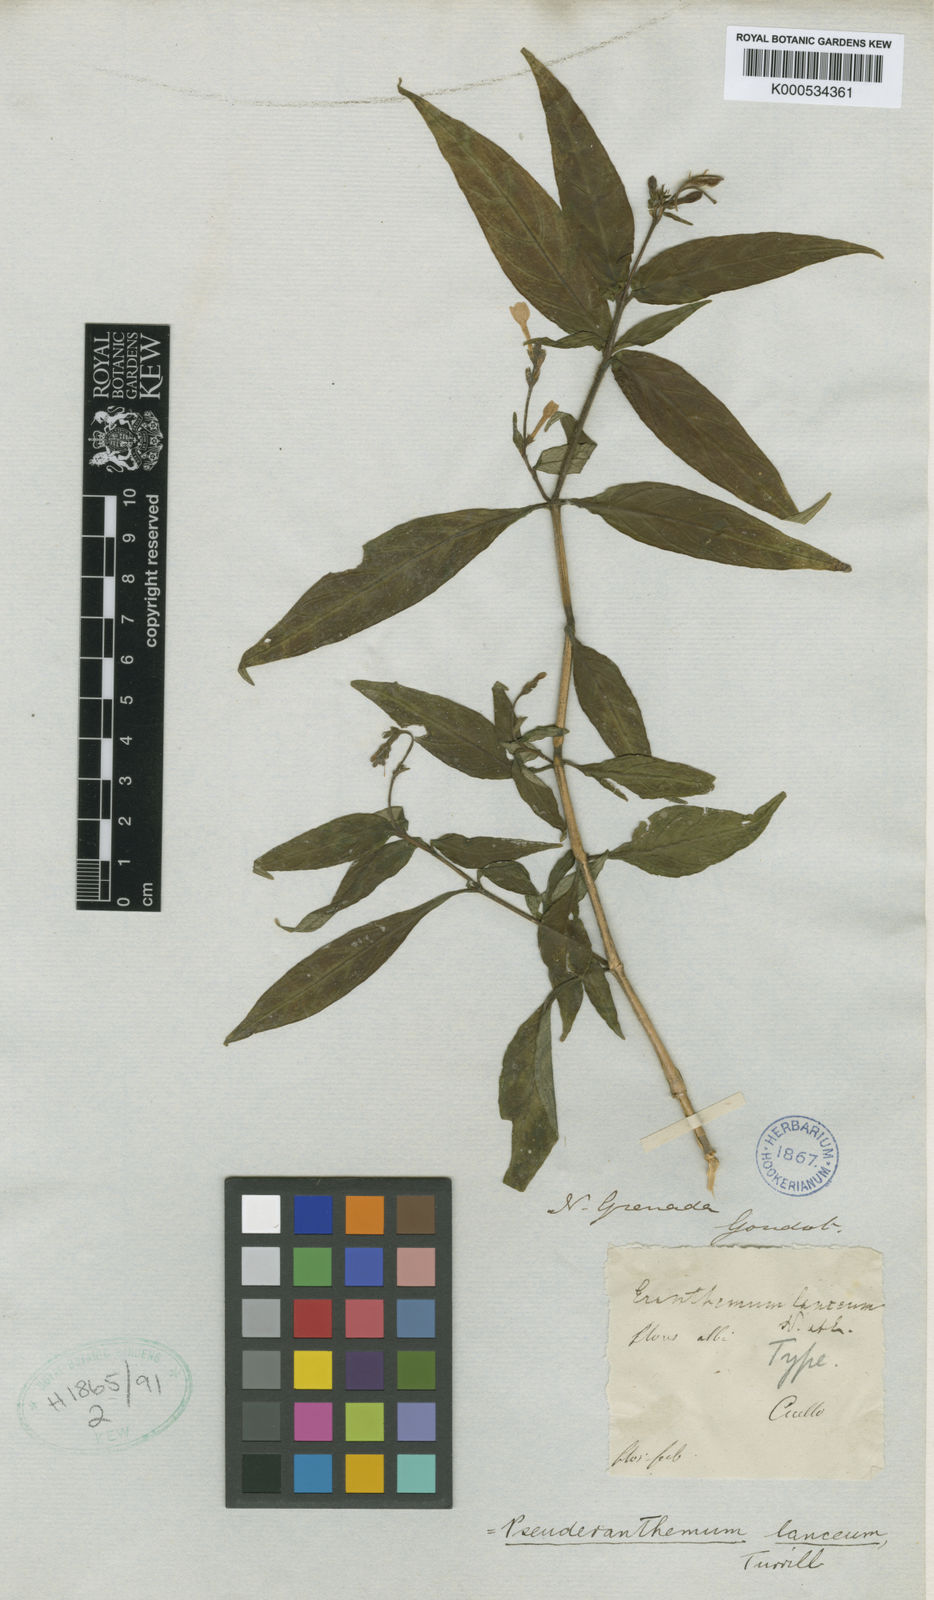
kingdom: Plantae
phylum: Tracheophyta
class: Magnoliopsida
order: Lamiales
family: Acanthaceae
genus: Pseuderanthemum
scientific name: Pseuderanthemum
